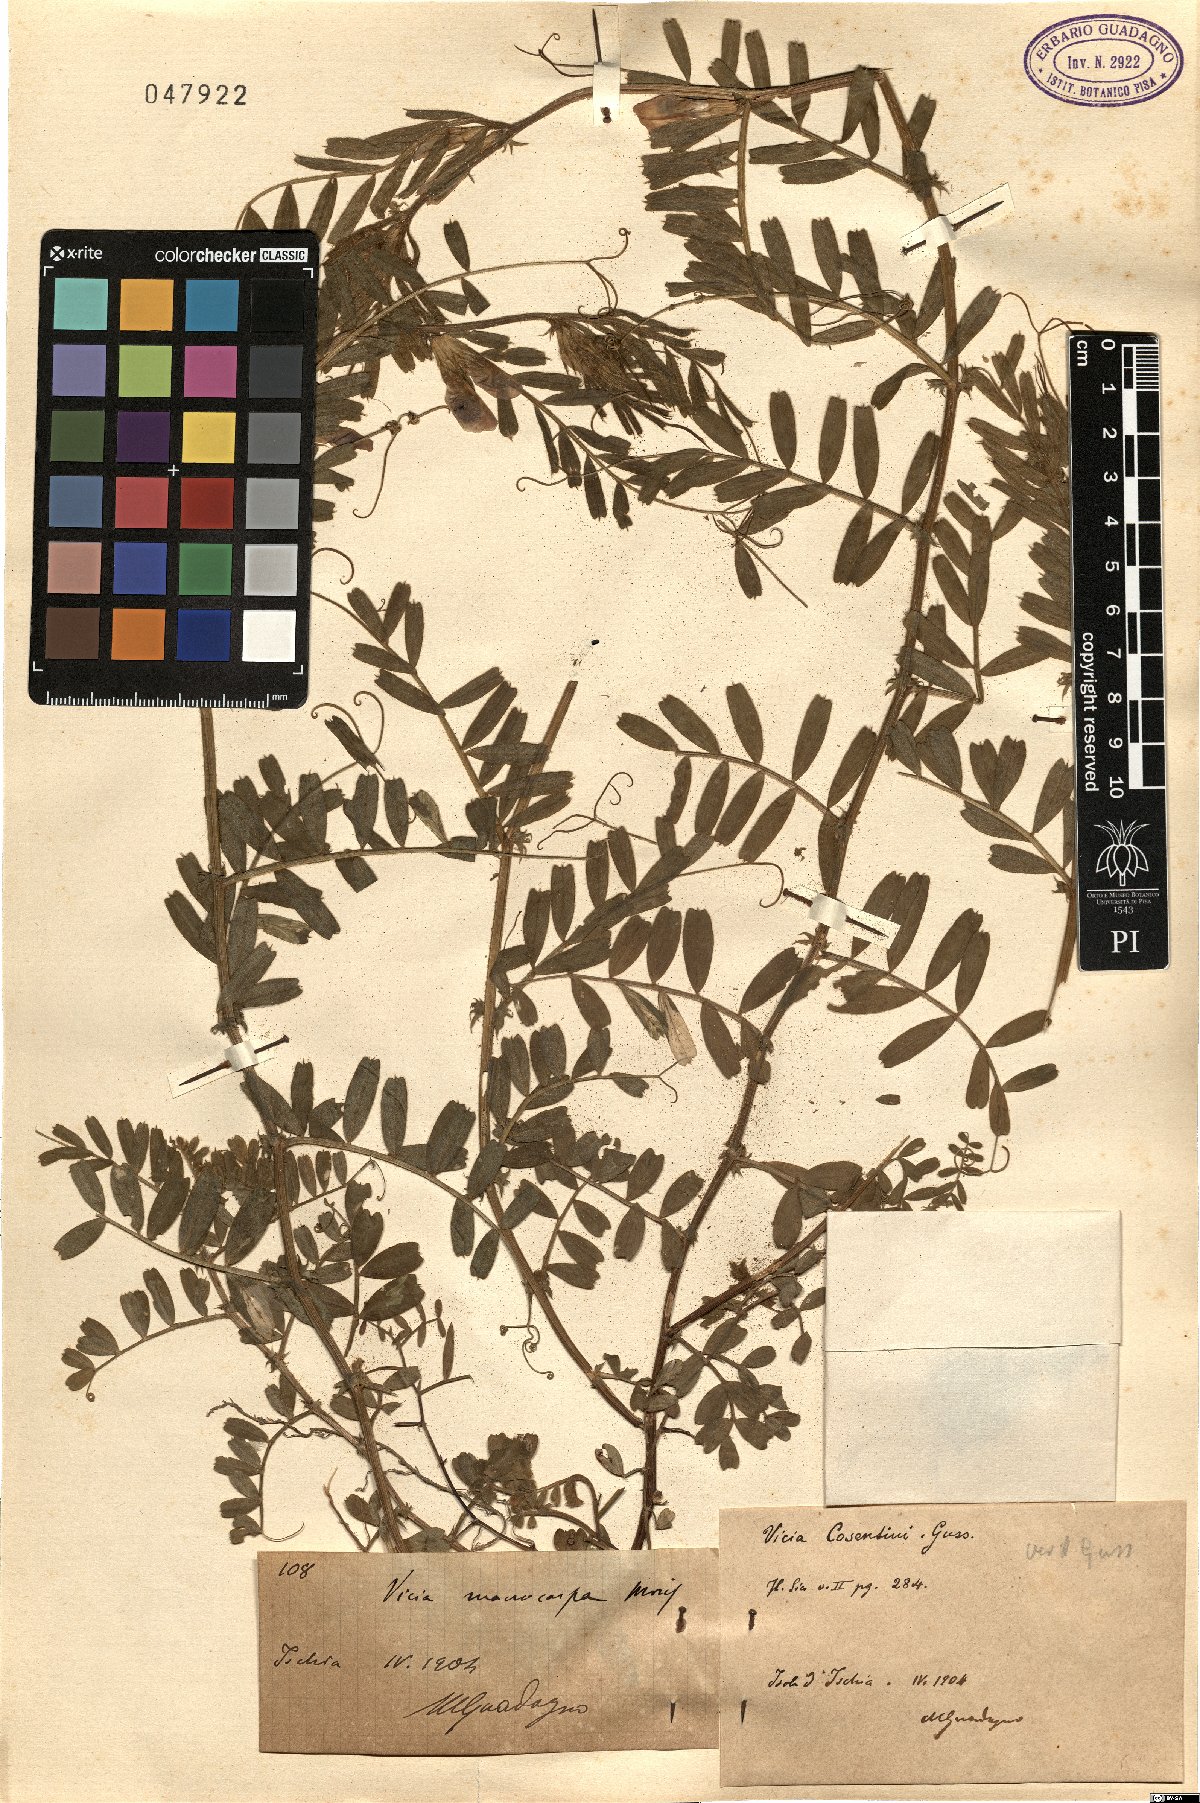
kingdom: Plantae
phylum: Tracheophyta
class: Magnoliopsida
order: Fabales
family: Fabaceae
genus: Vicia
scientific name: Vicia sativa
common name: Garden vetch
